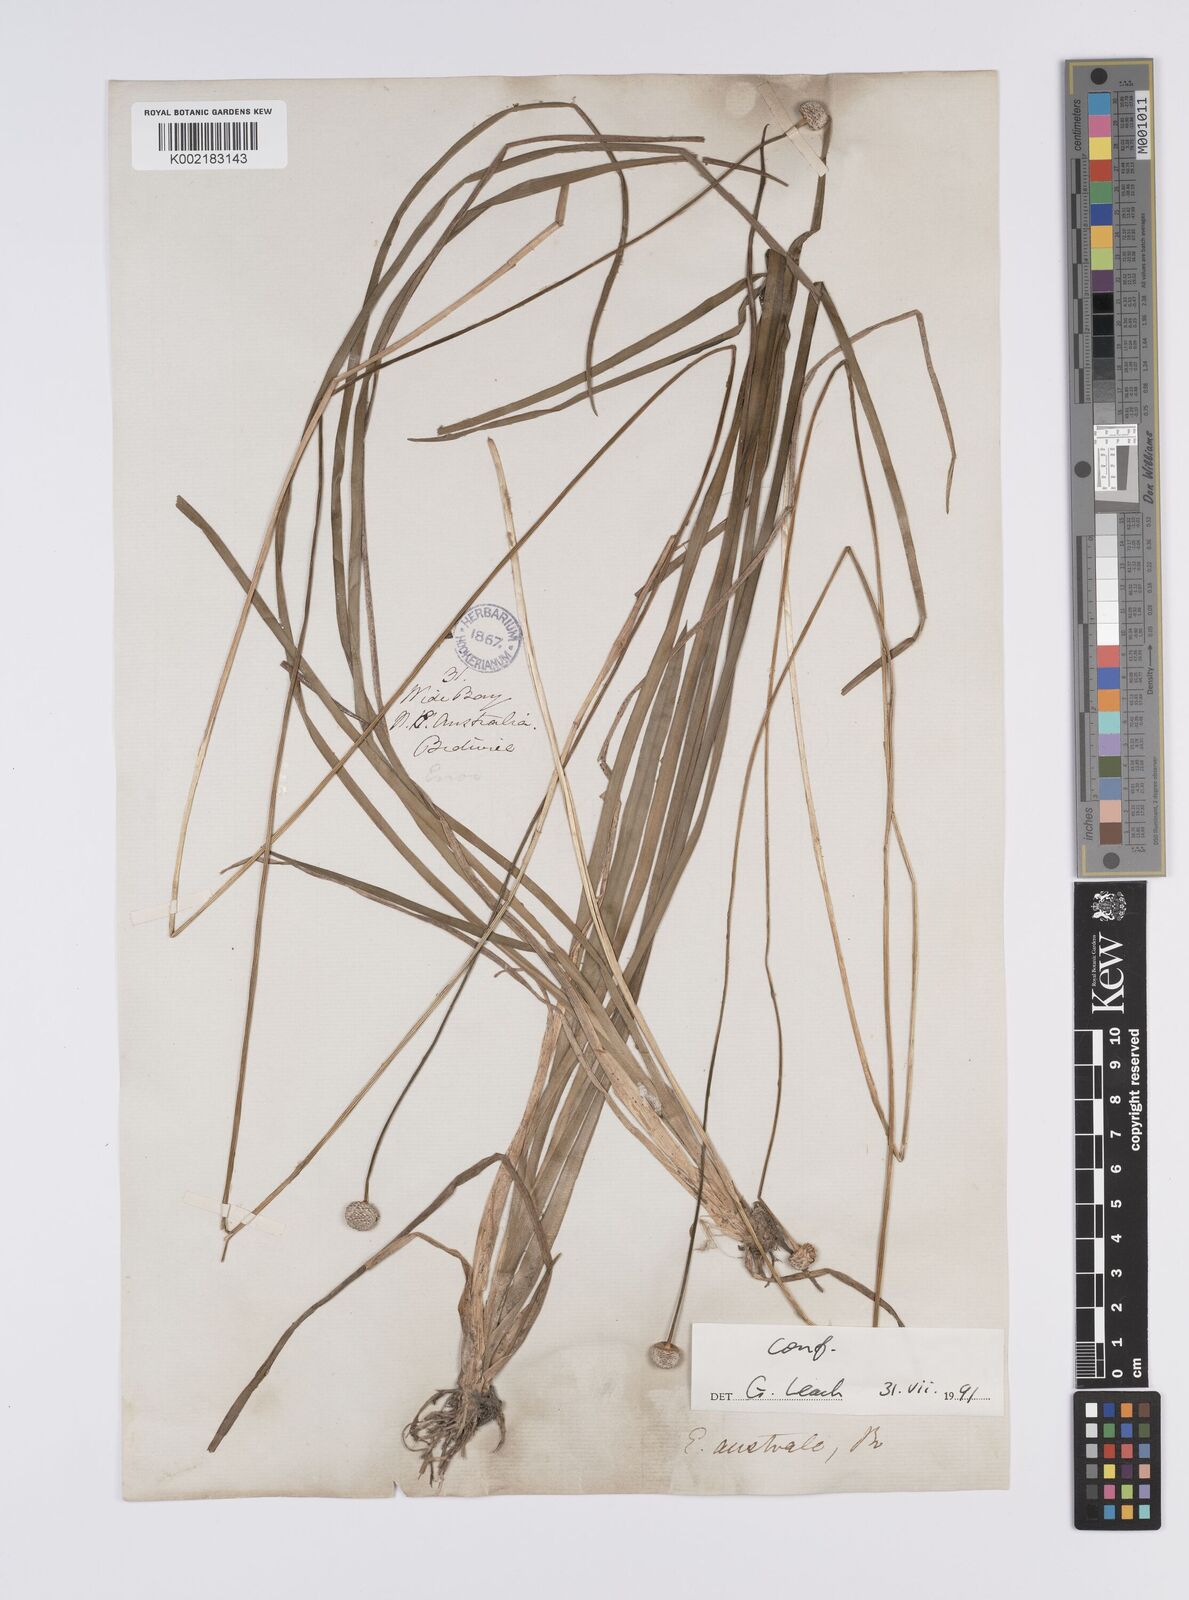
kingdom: Plantae
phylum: Tracheophyta
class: Liliopsida
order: Poales
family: Eriocaulaceae
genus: Eriocaulon
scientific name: Eriocaulon australe
